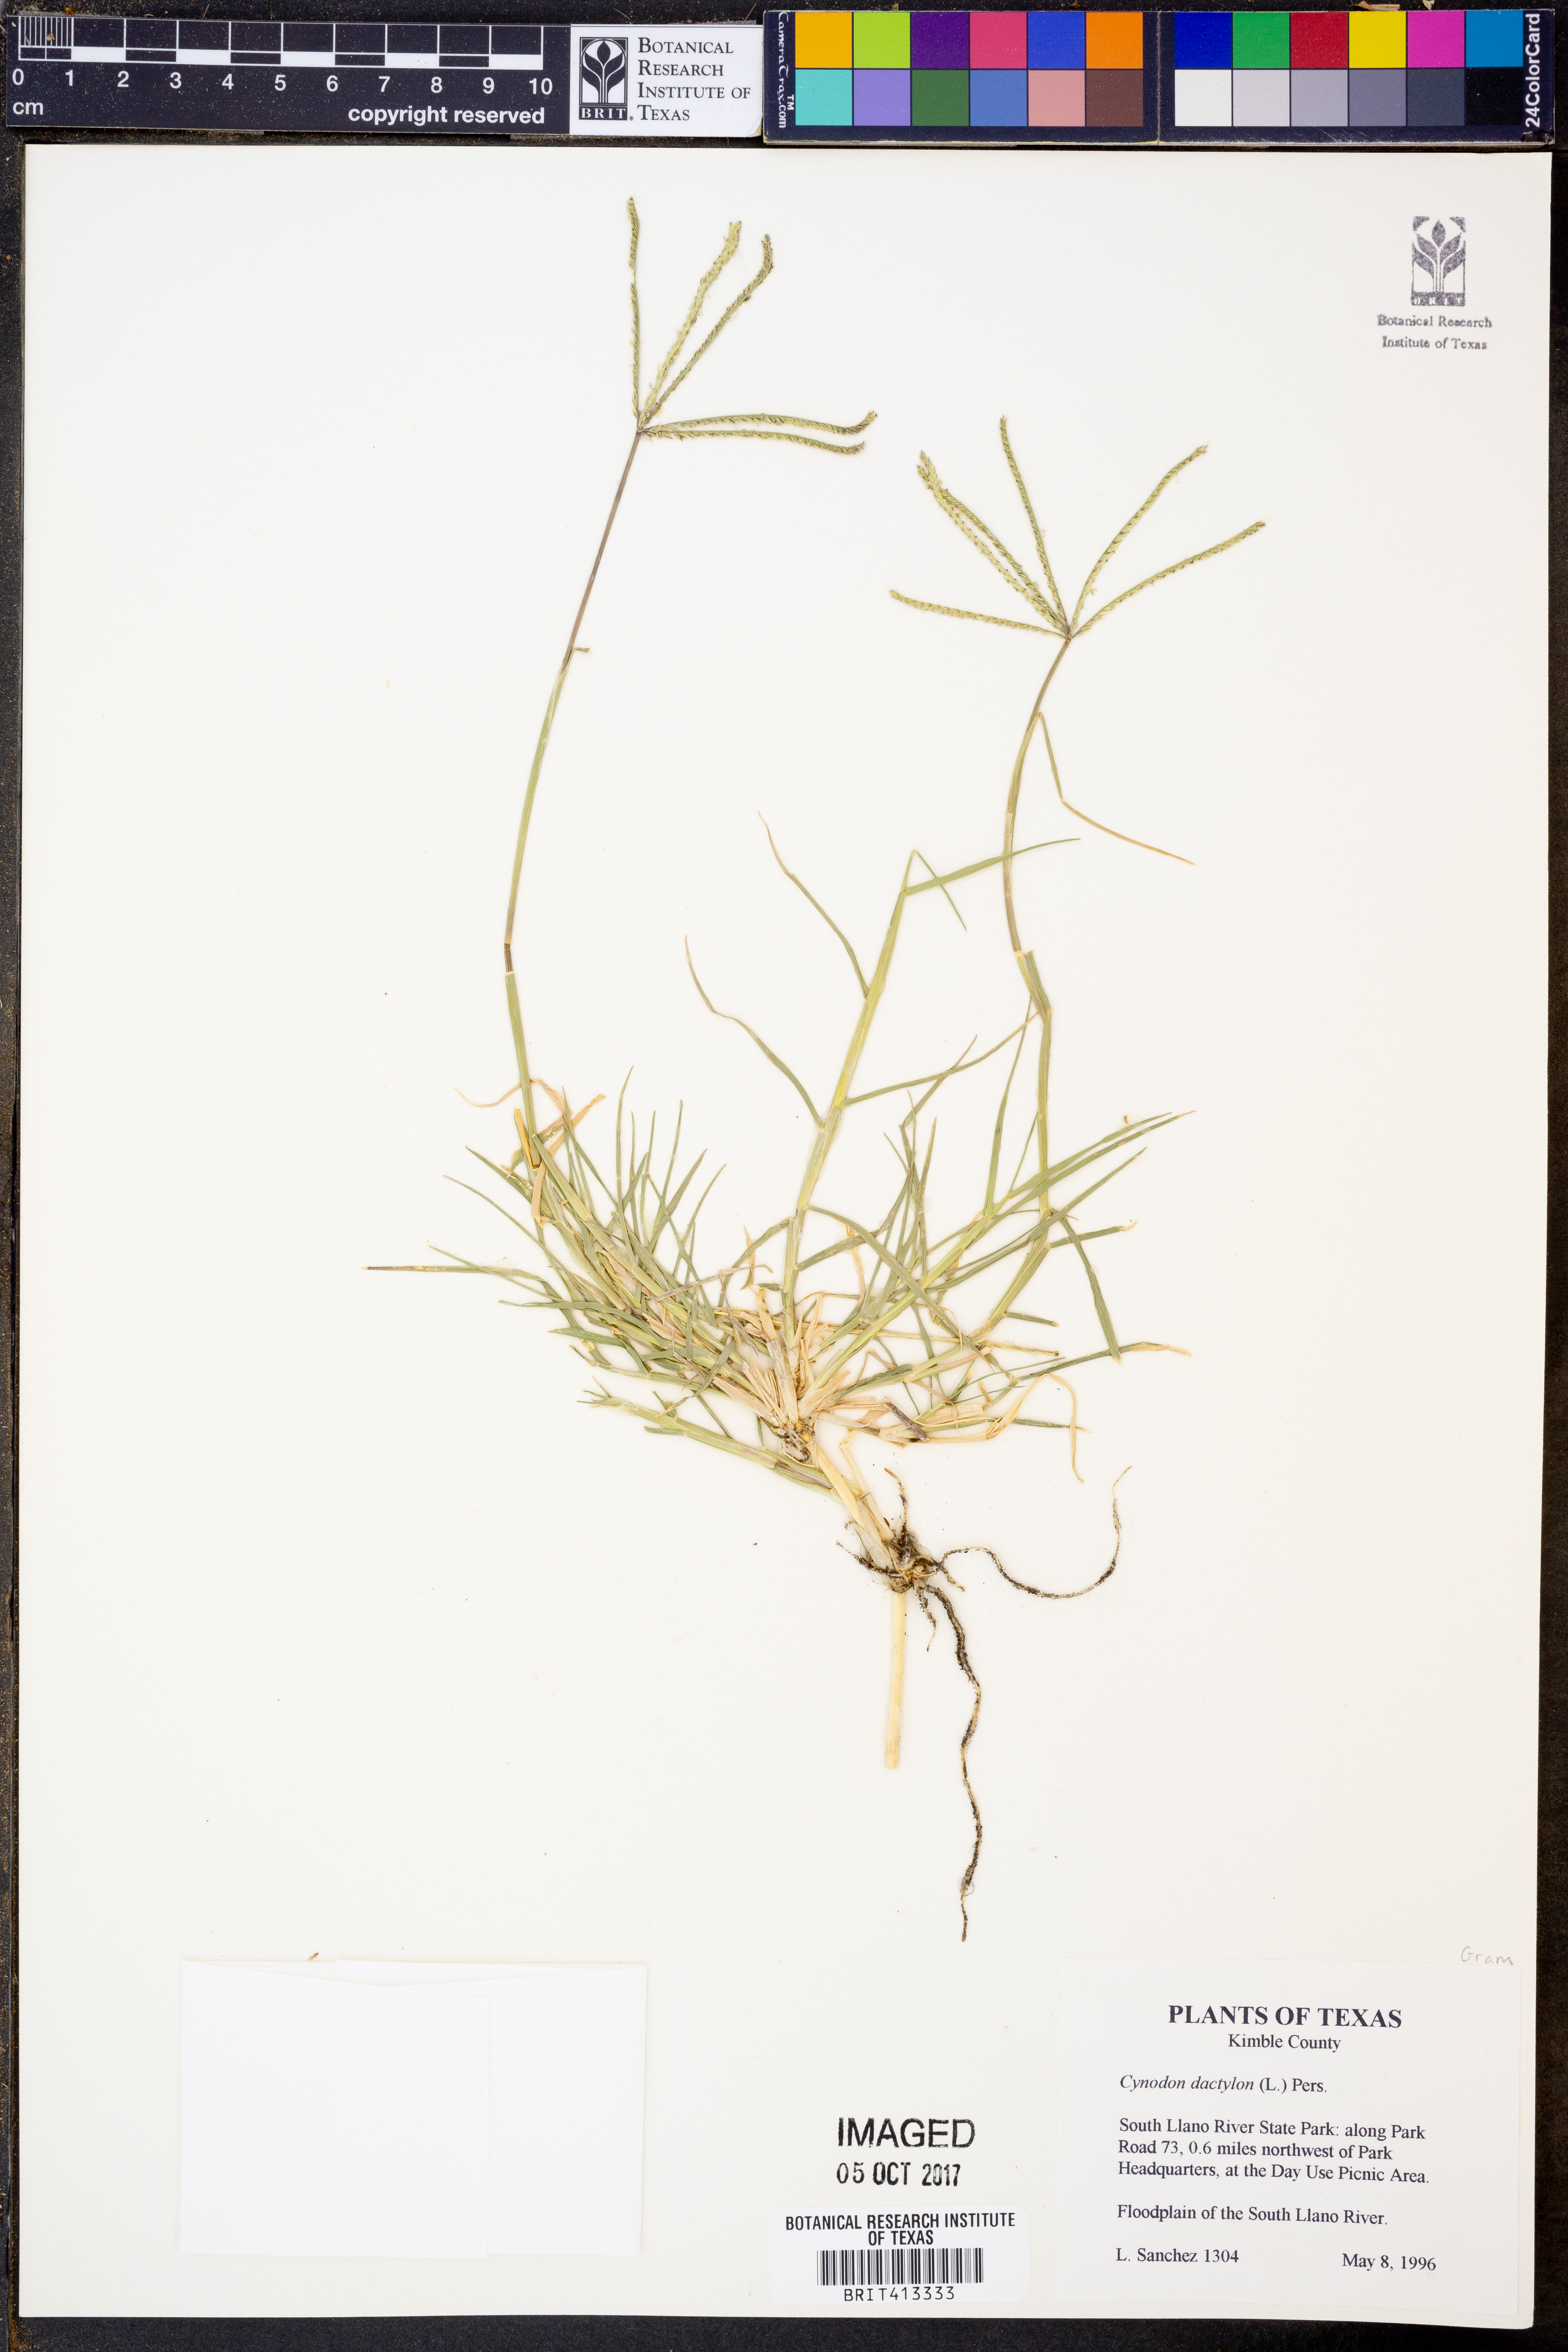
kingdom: Plantae
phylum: Tracheophyta
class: Liliopsida
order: Poales
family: Poaceae
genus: Cynodon
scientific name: Cynodon dactylon
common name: Bermuda grass
